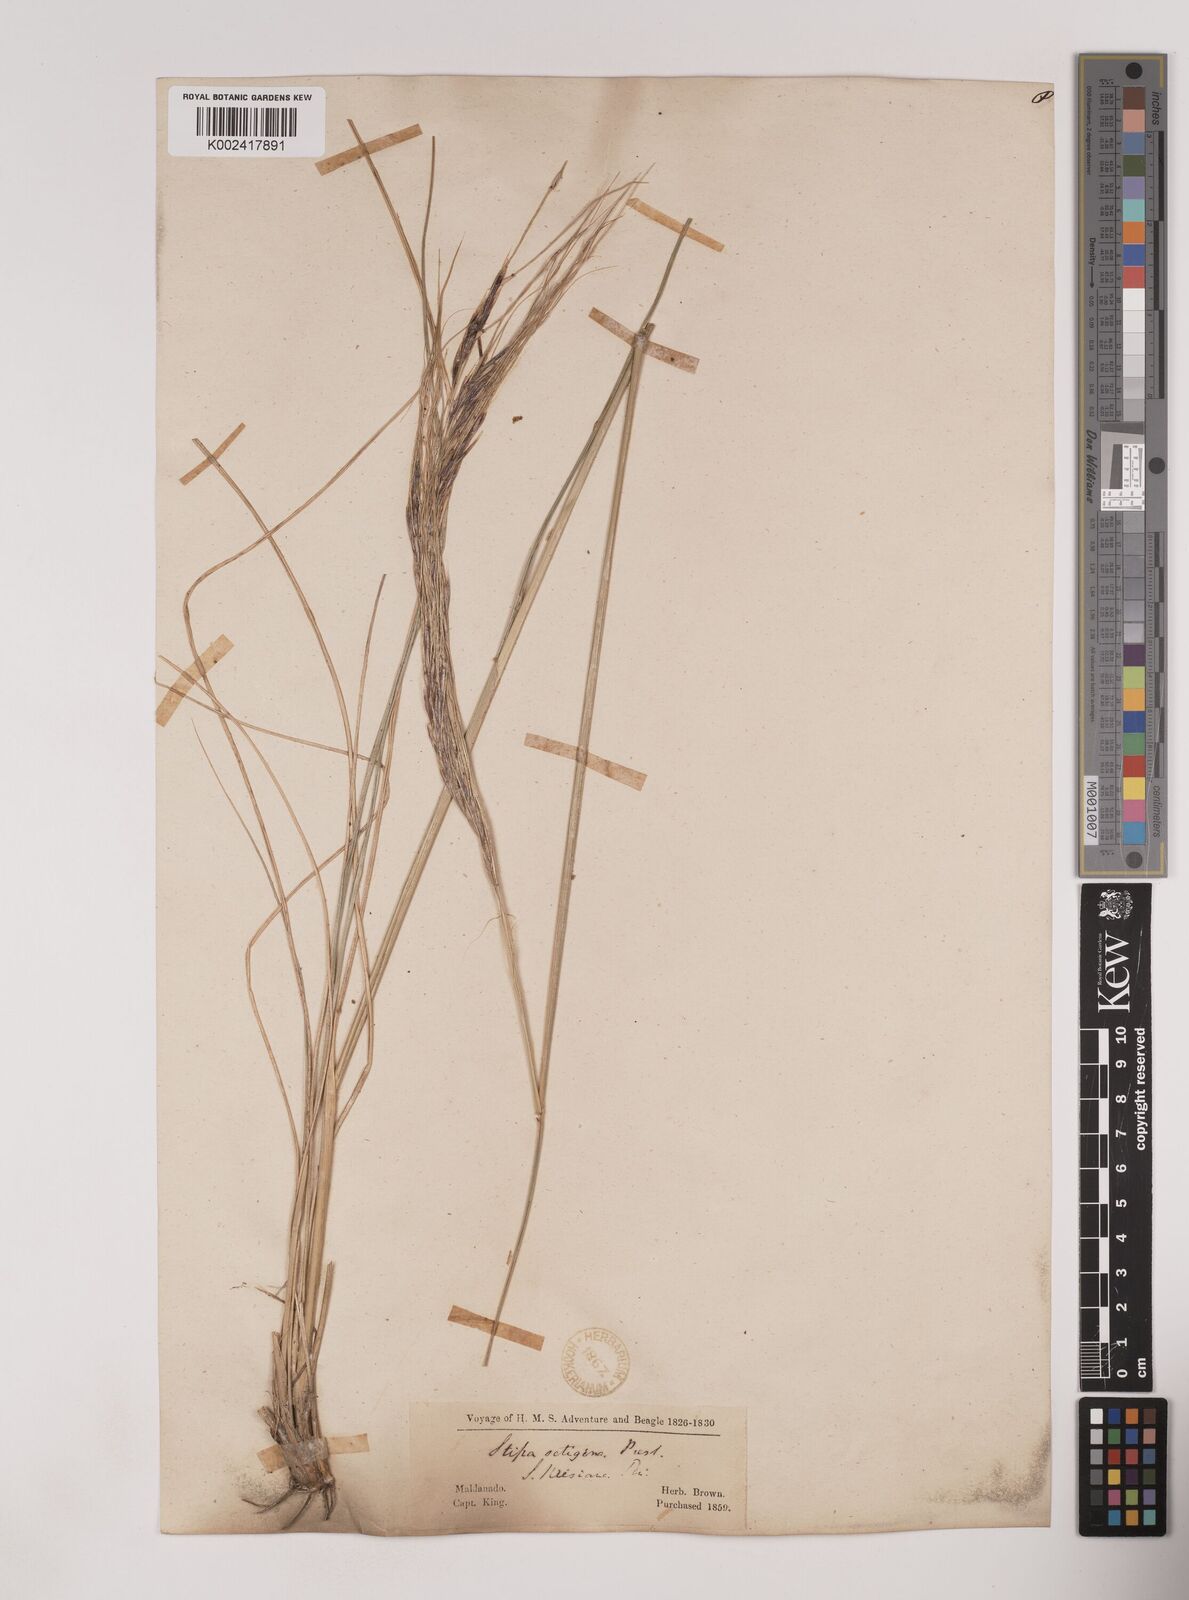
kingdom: Plantae
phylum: Tracheophyta
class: Liliopsida
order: Poales
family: Poaceae
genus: Nassella
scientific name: Nassella neesiana
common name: American needle-grass
